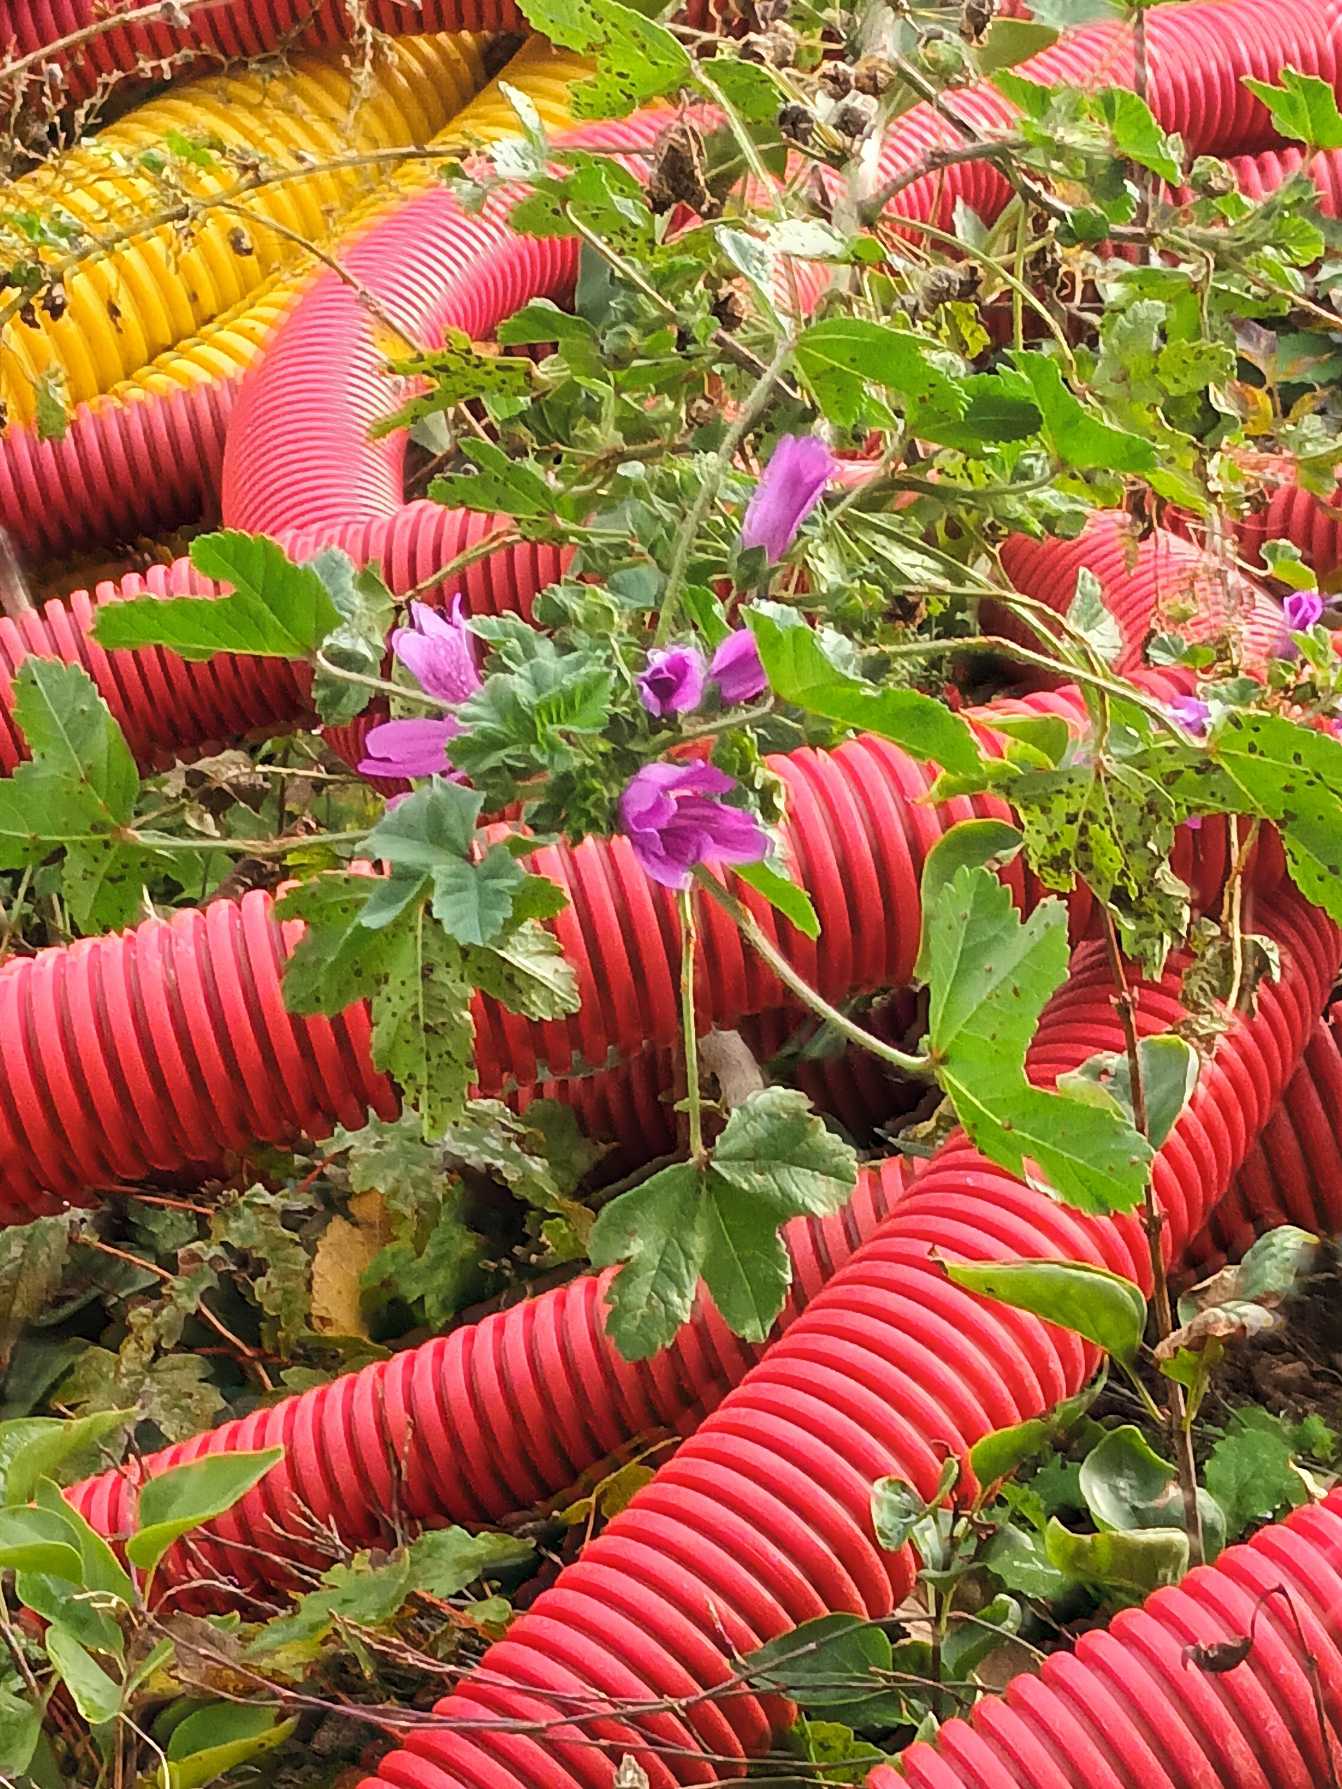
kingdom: Plantae
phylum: Tracheophyta
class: Magnoliopsida
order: Malvales
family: Malvaceae
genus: Malva
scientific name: Malva sylvestris
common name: Almindelig katost
